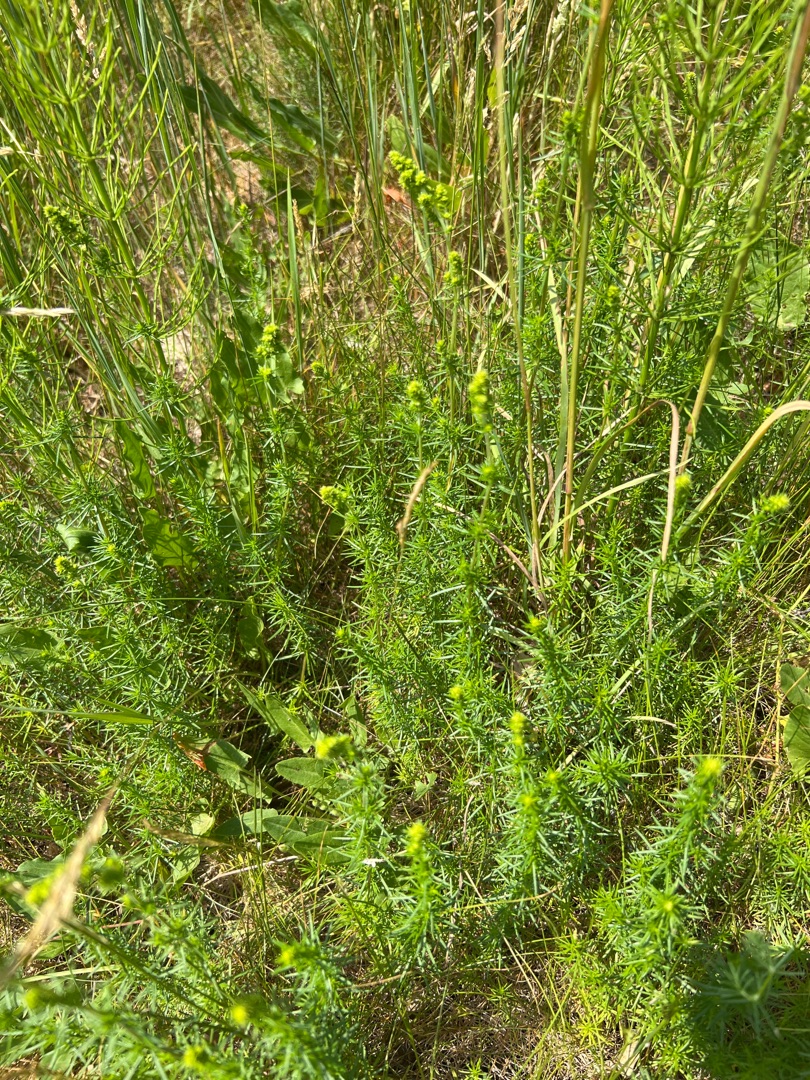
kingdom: Plantae
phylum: Tracheophyta
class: Magnoliopsida
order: Gentianales
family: Rubiaceae
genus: Galium
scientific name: Galium verum
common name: Gul snerre
